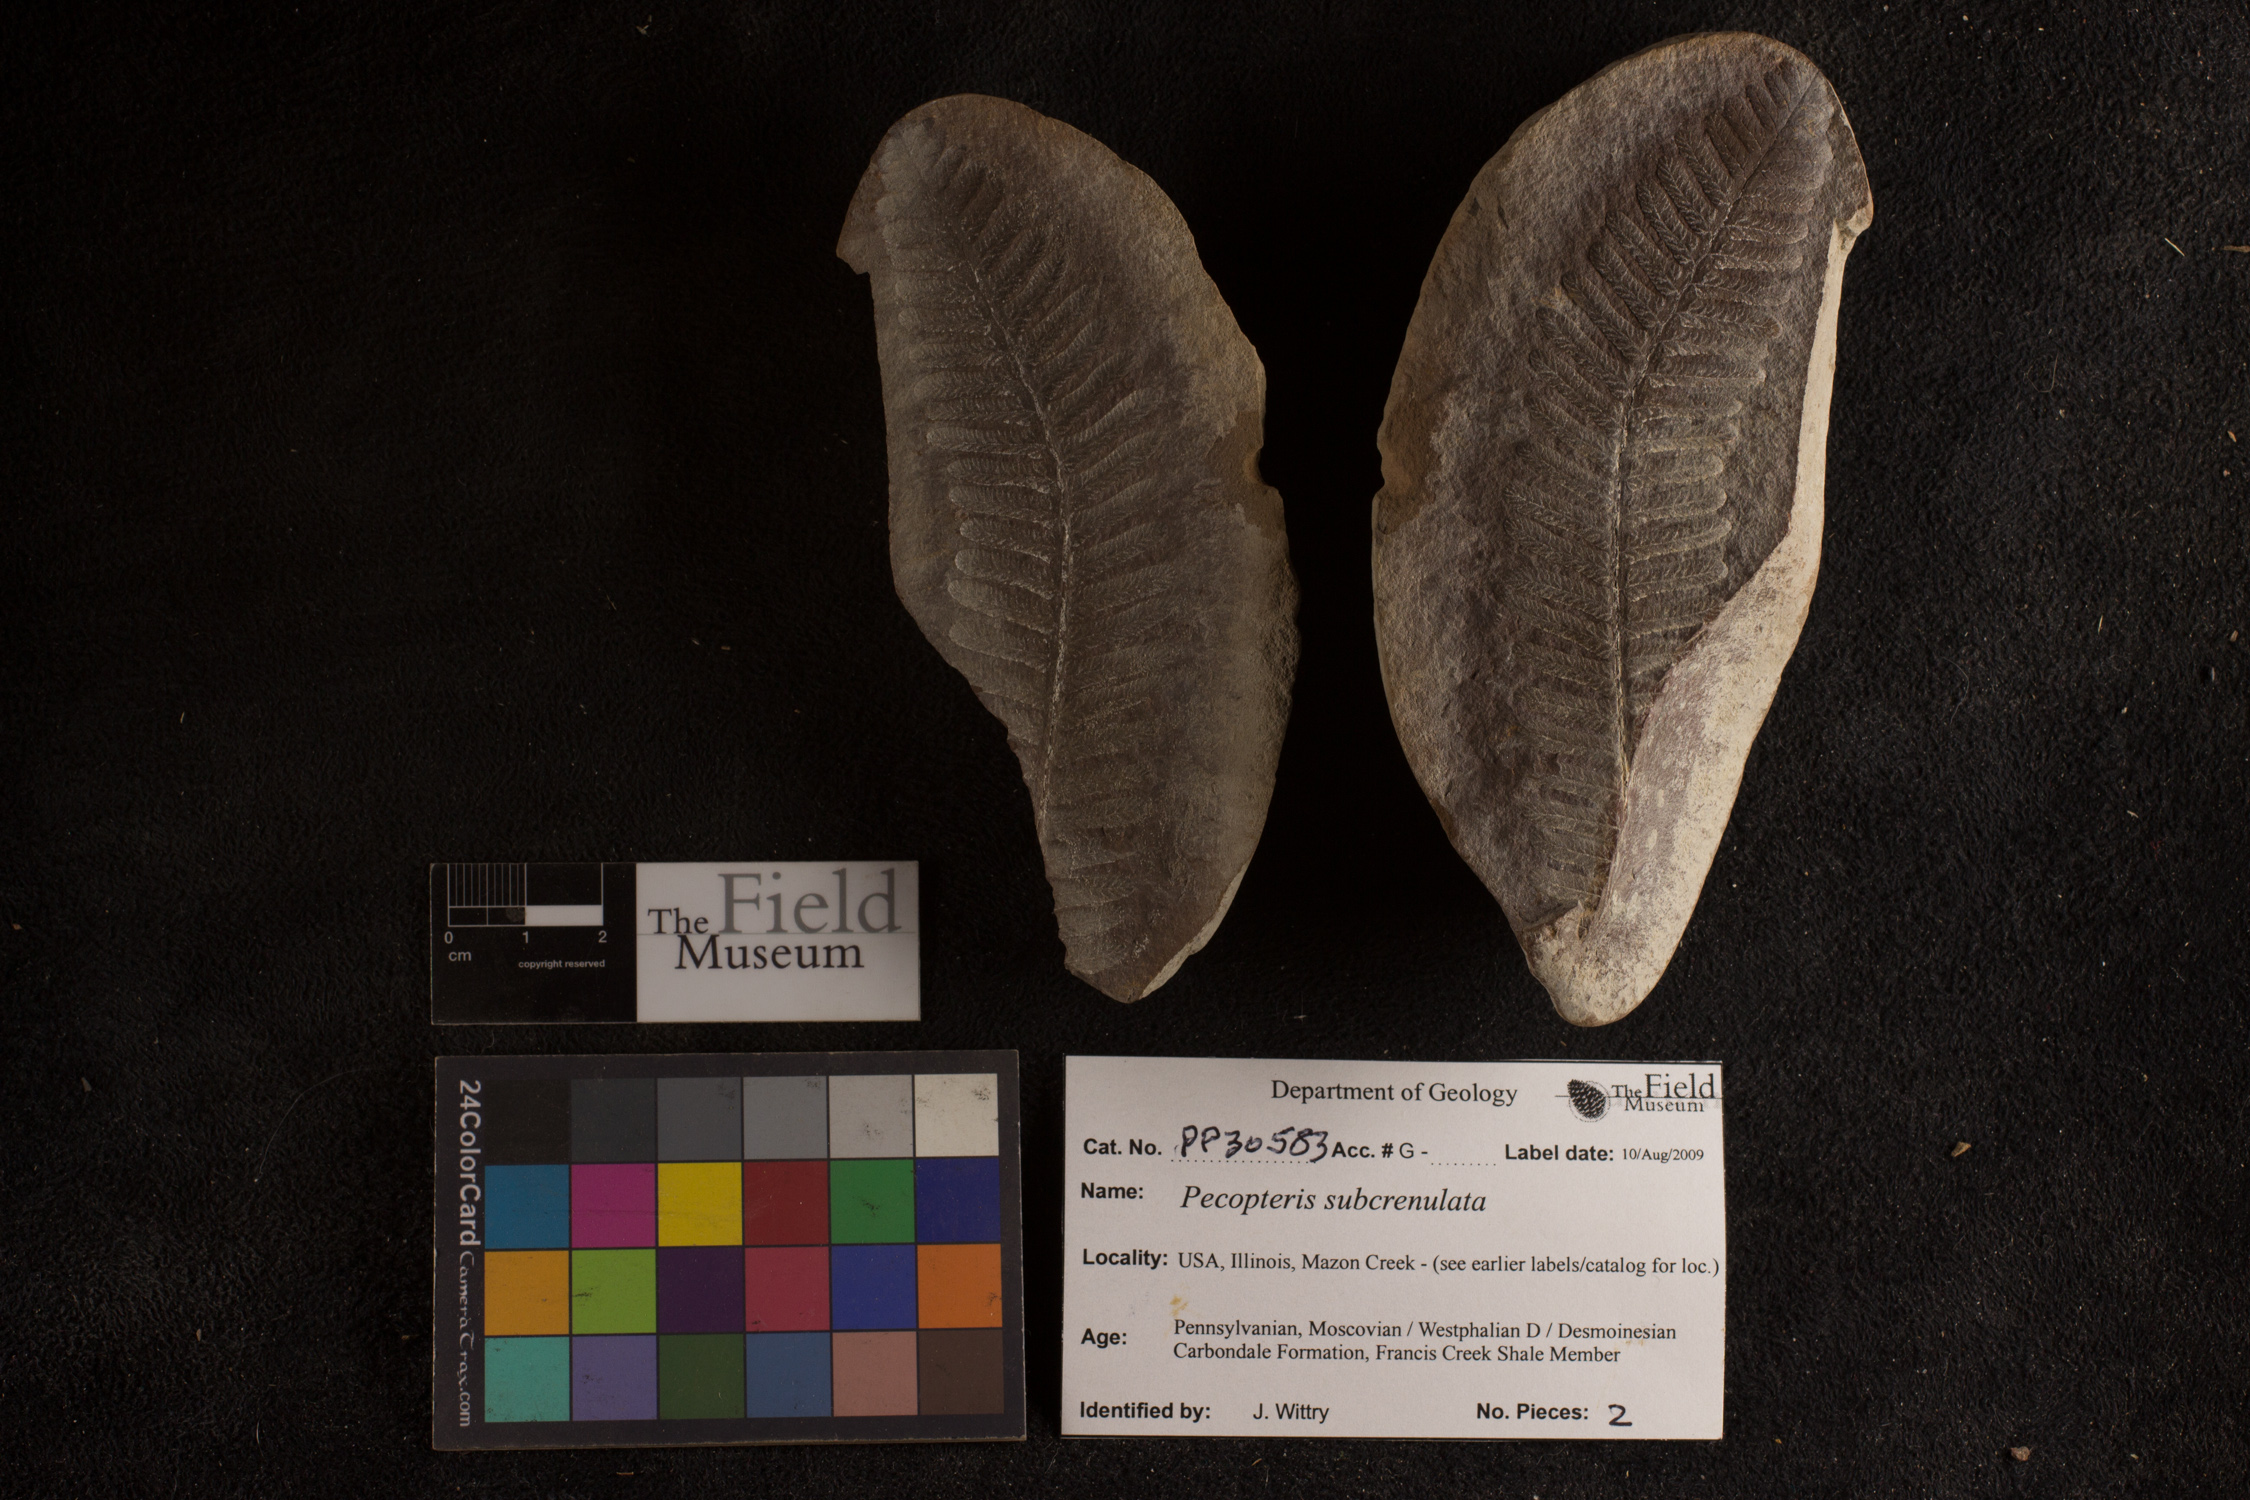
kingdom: Plantae
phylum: Tracheophyta
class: Polypodiopsida
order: Marattiales
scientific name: Marattiales
